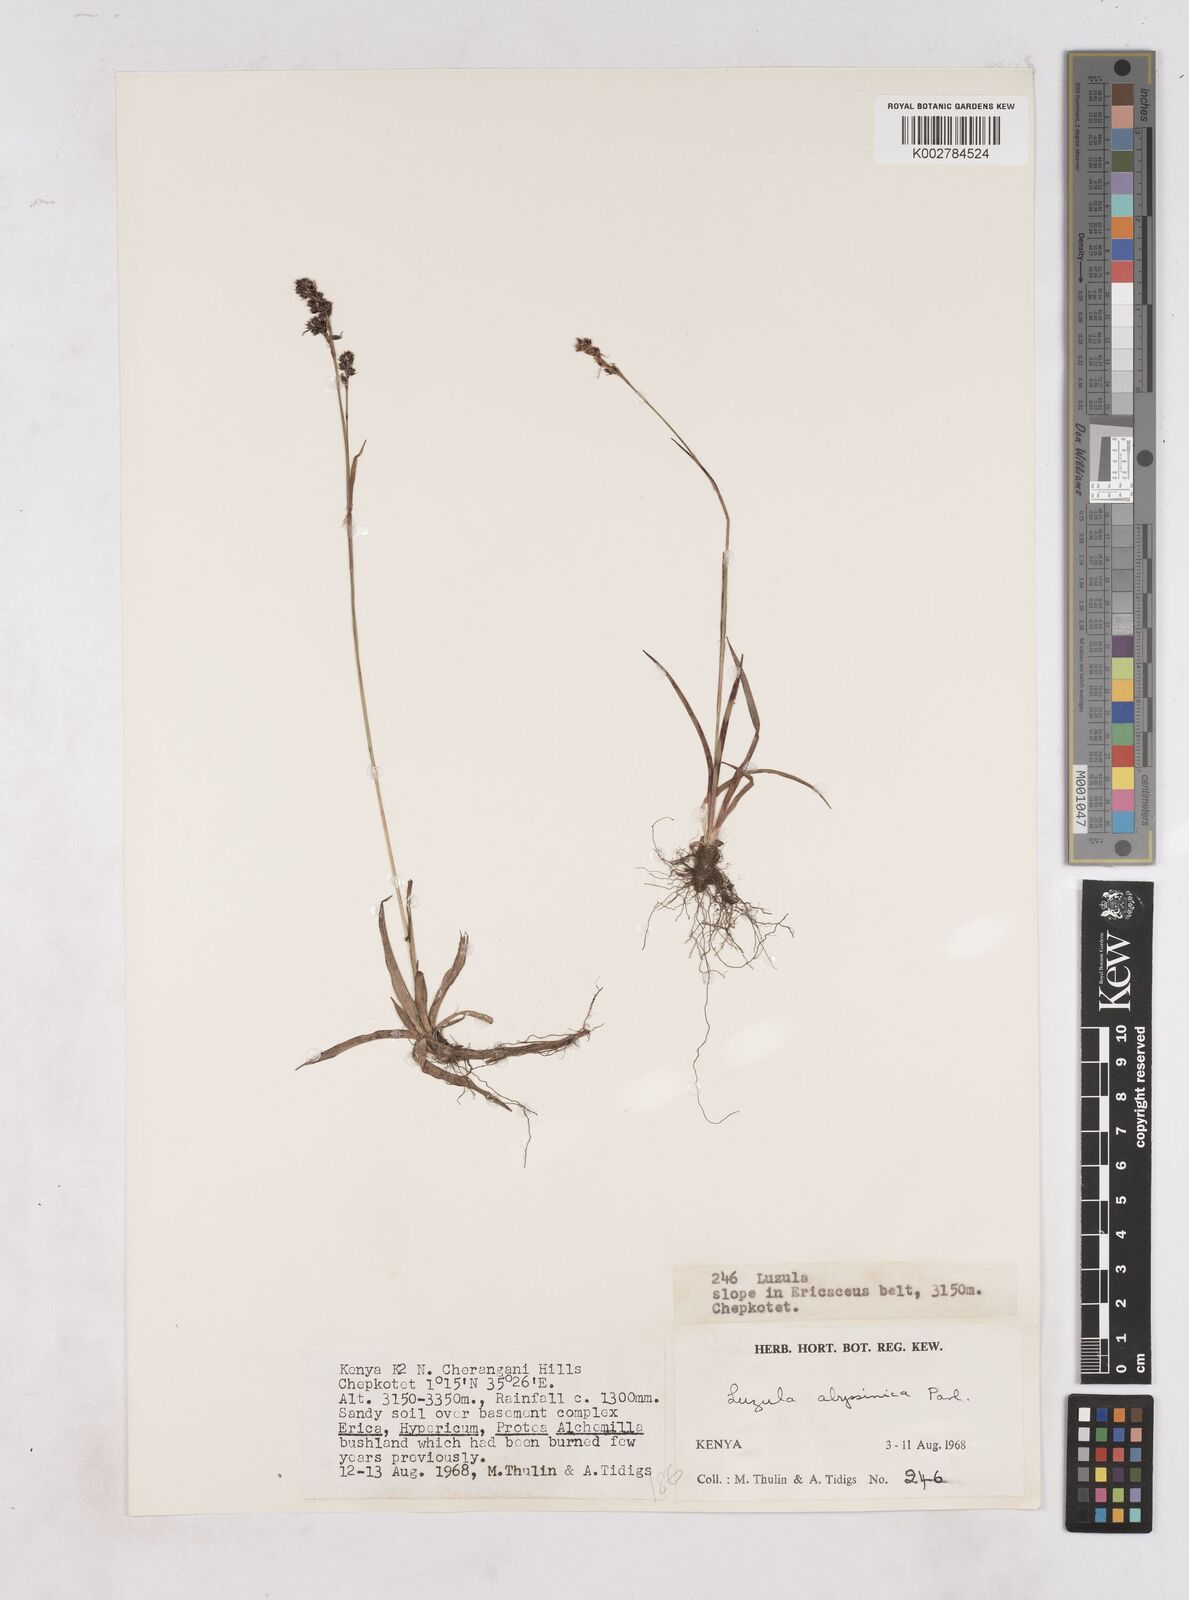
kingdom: Plantae
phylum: Tracheophyta
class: Liliopsida
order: Poales
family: Juncaceae
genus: Luzula
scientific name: Luzula abyssinica
